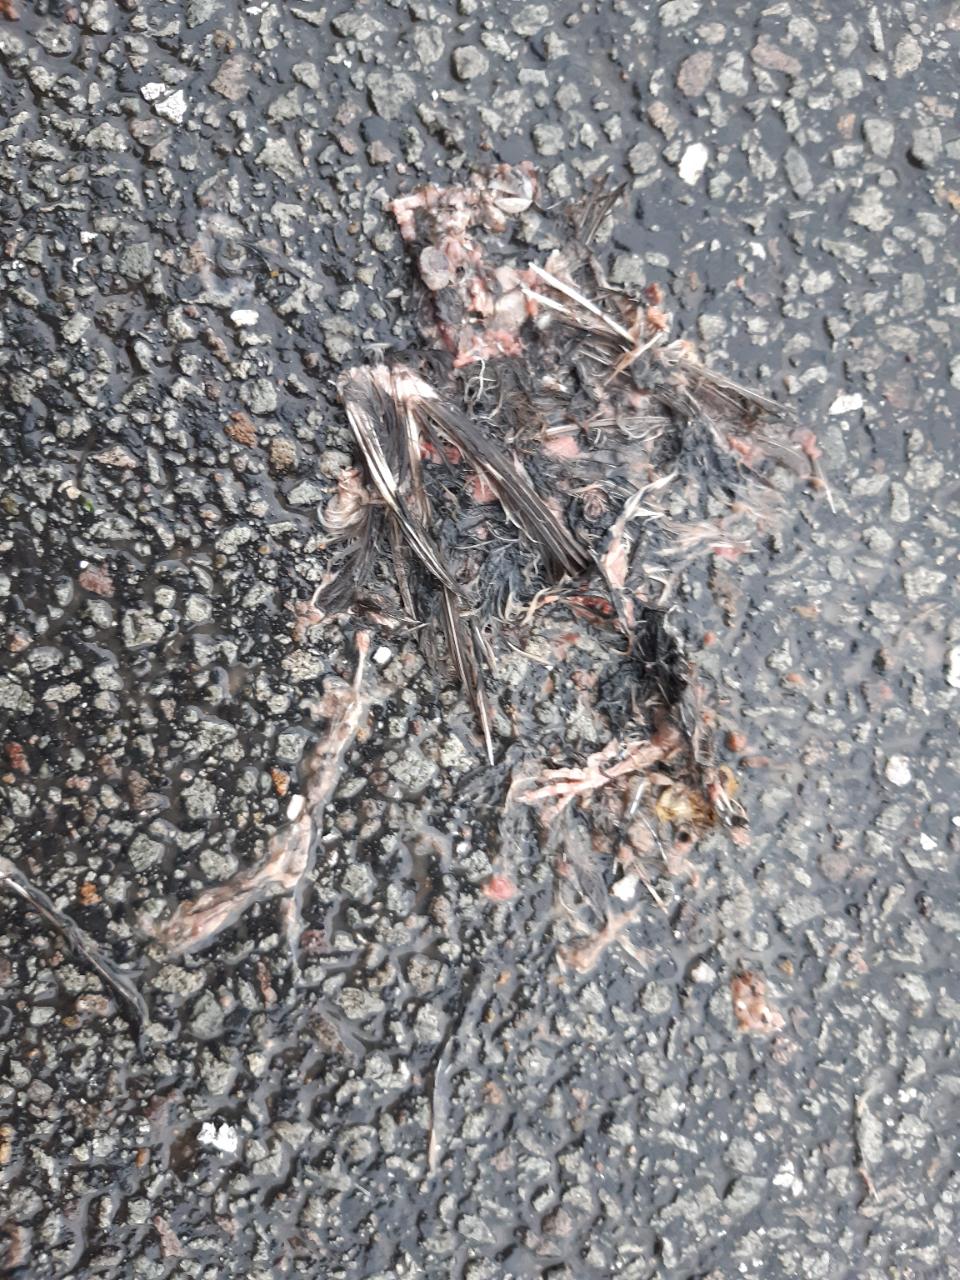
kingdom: Animalia
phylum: Chordata
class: Aves
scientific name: Aves
